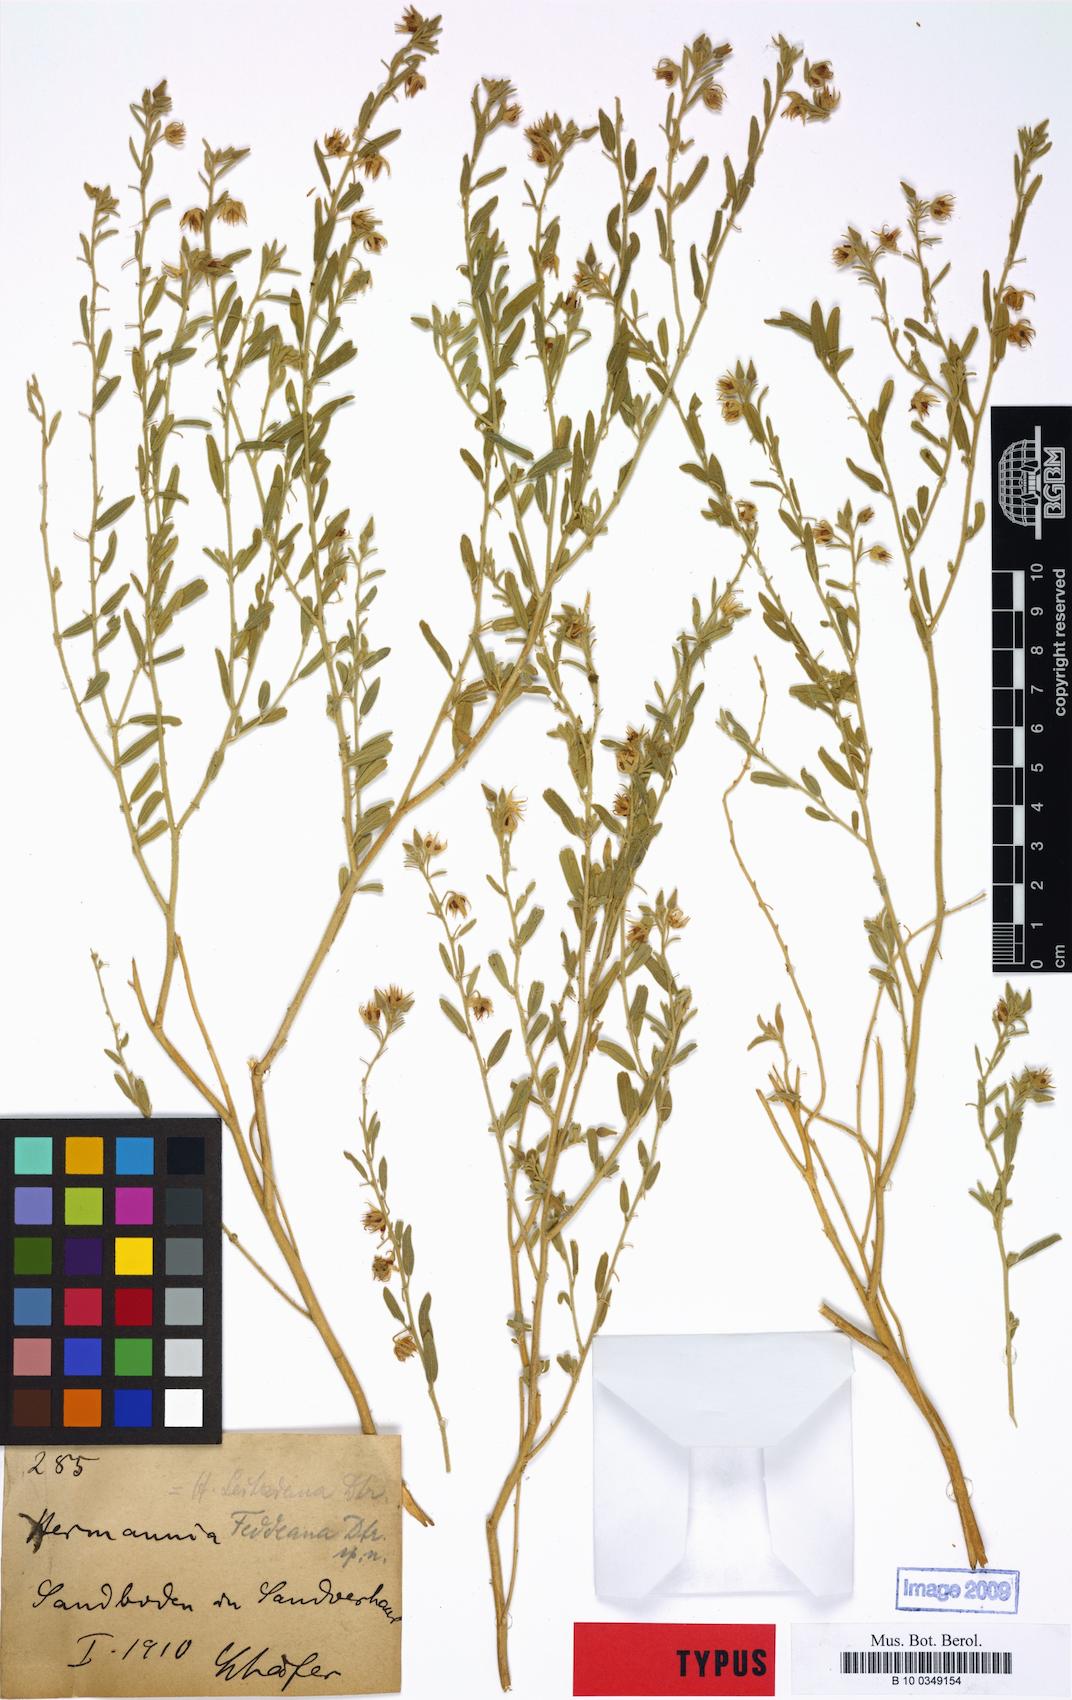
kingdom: Plantae
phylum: Tracheophyta
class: Magnoliopsida
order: Malvales
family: Malvaceae
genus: Hermannia
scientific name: Hermannia engleri
